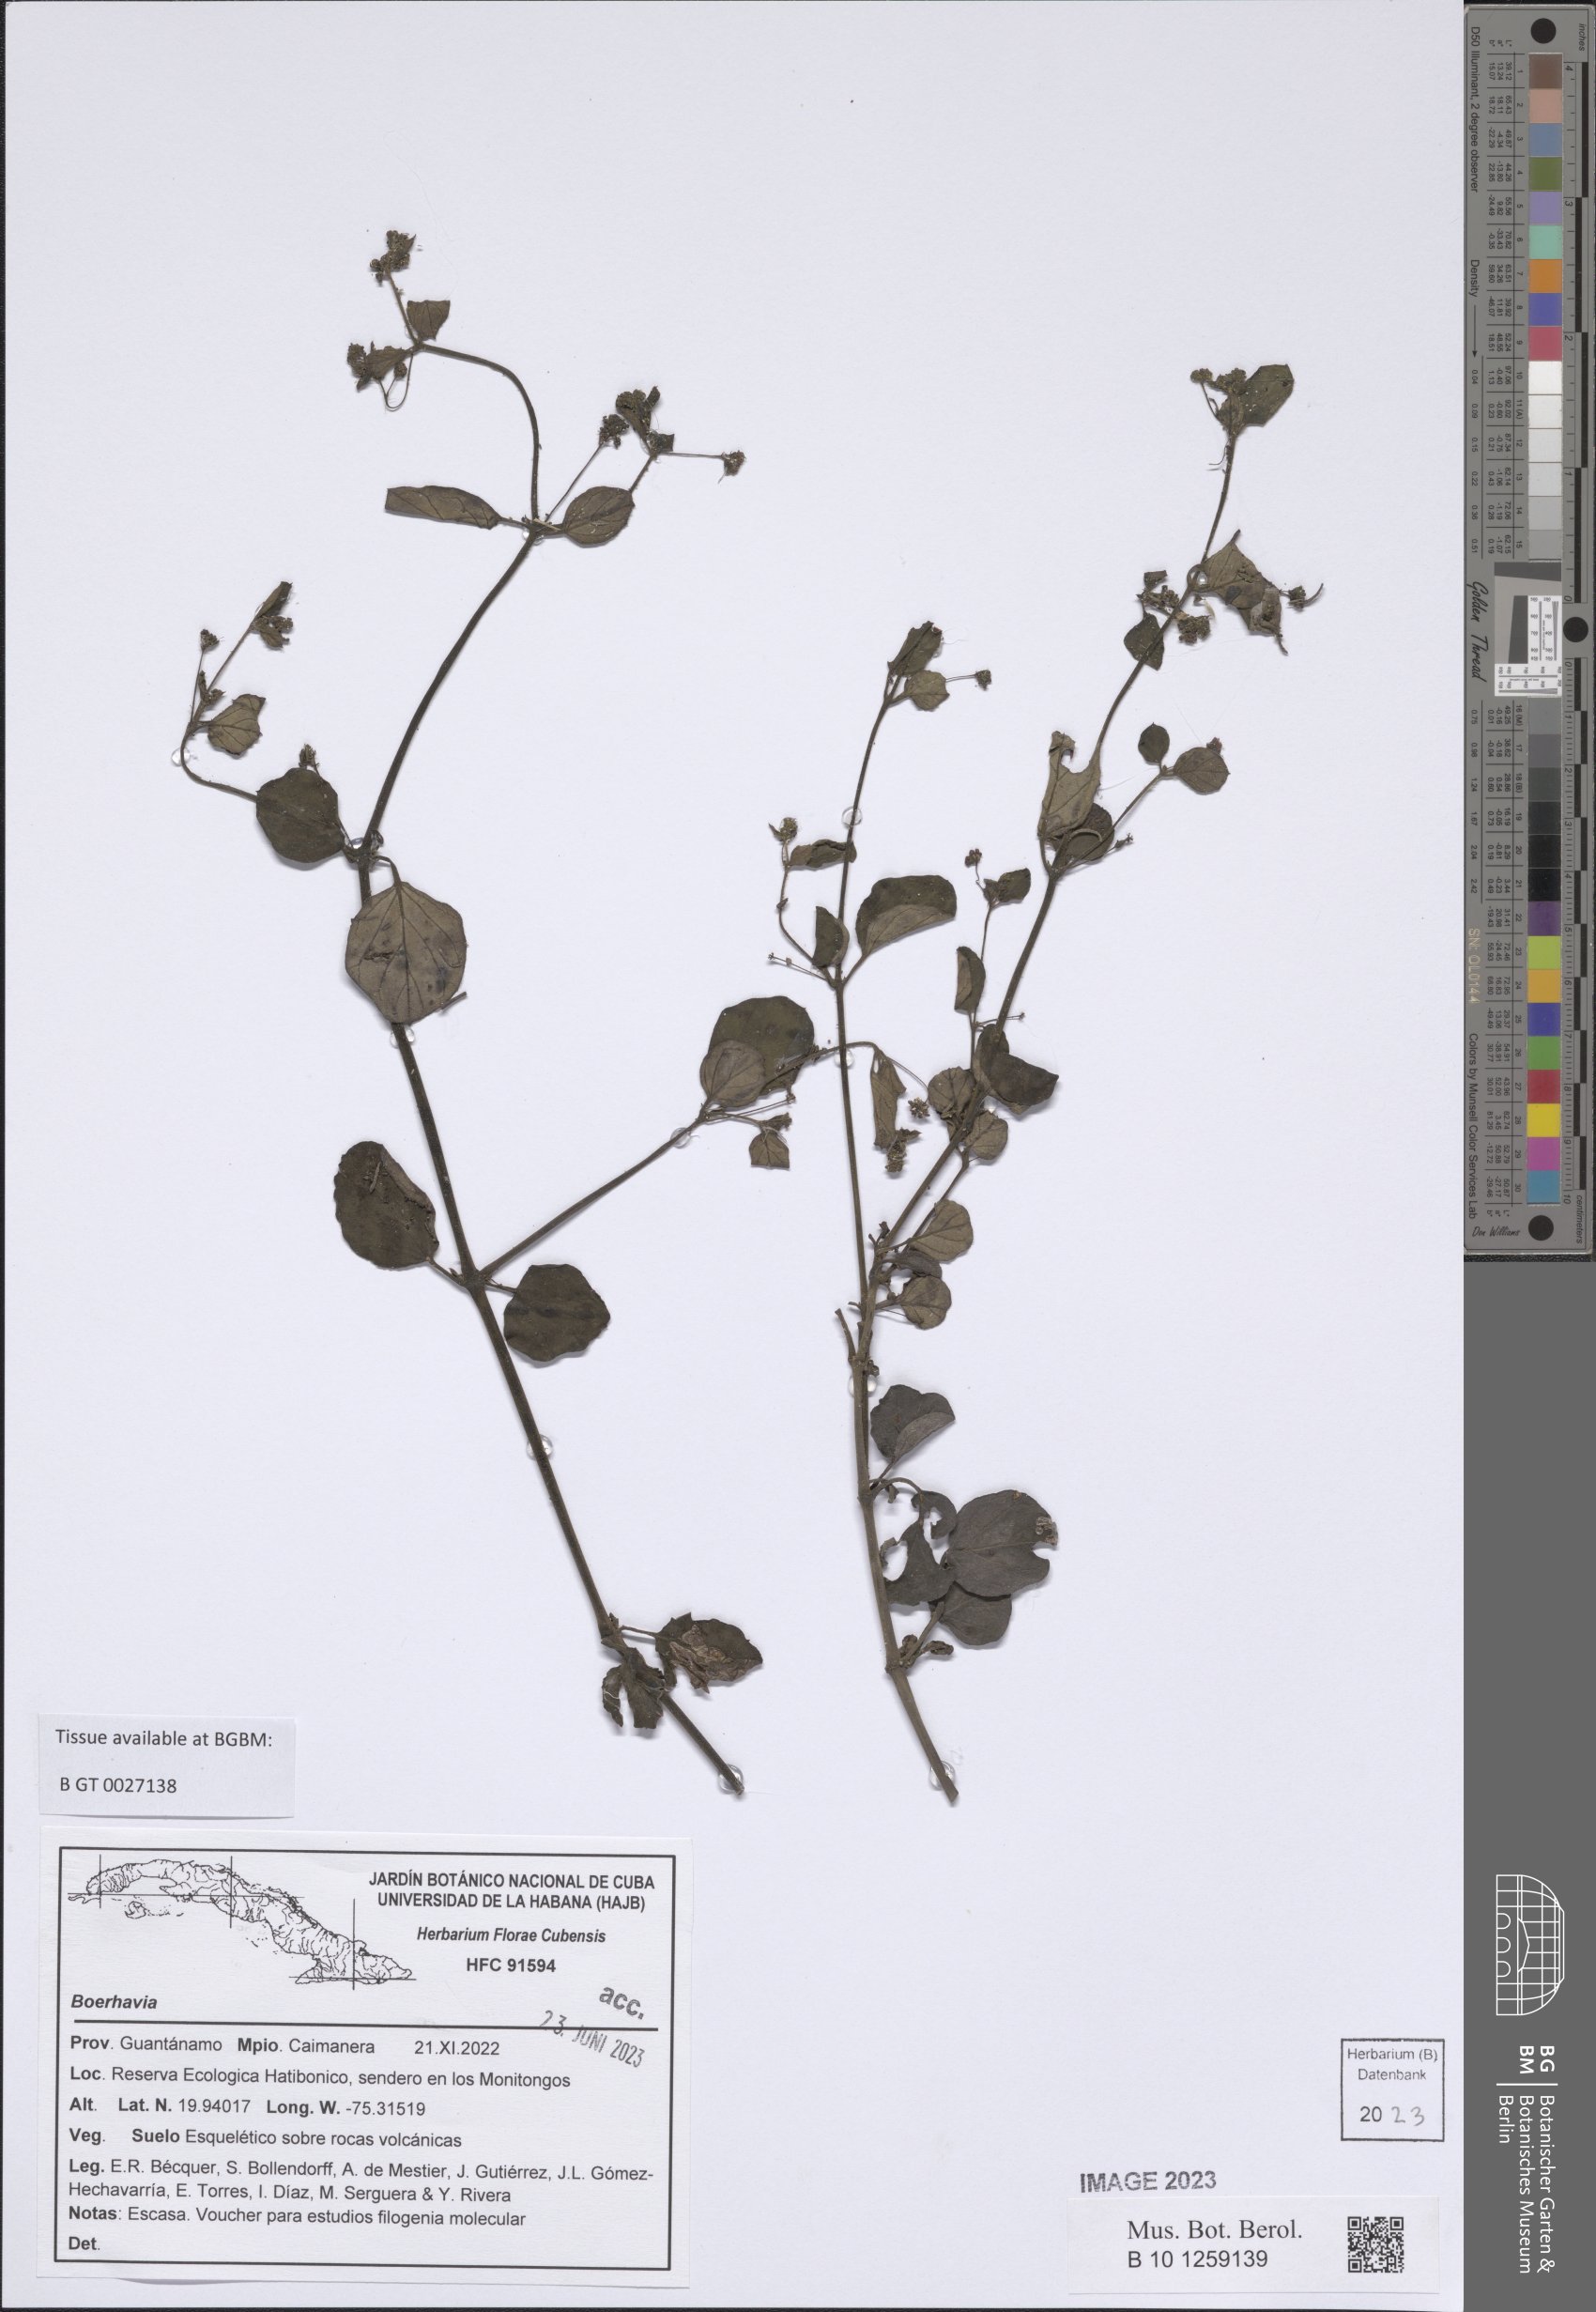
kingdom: Plantae
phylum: Tracheophyta
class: Magnoliopsida
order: Caryophyllales
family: Nyctaginaceae
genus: Boerhavia
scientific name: Boerhavia
